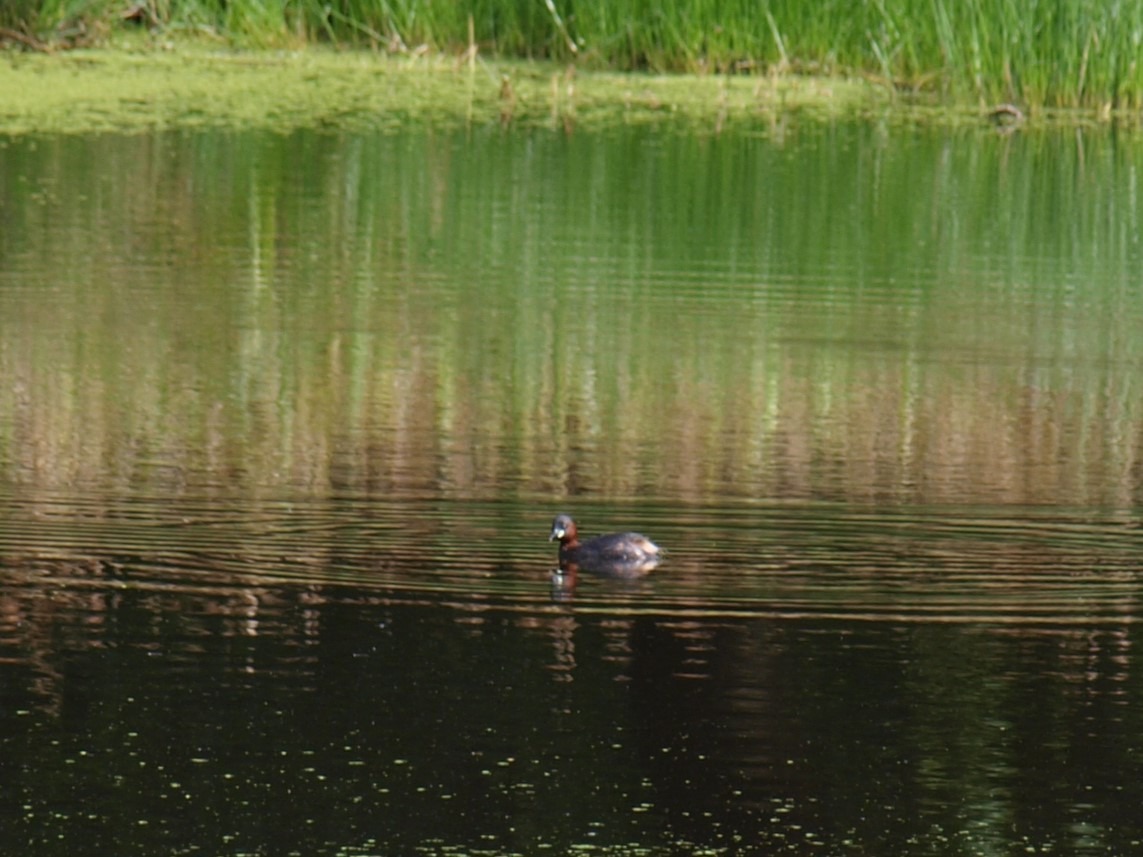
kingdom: Animalia
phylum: Chordata
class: Aves
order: Podicipediformes
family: Podicipedidae
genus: Tachybaptus
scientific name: Tachybaptus ruficollis
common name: Lille lappedykker
